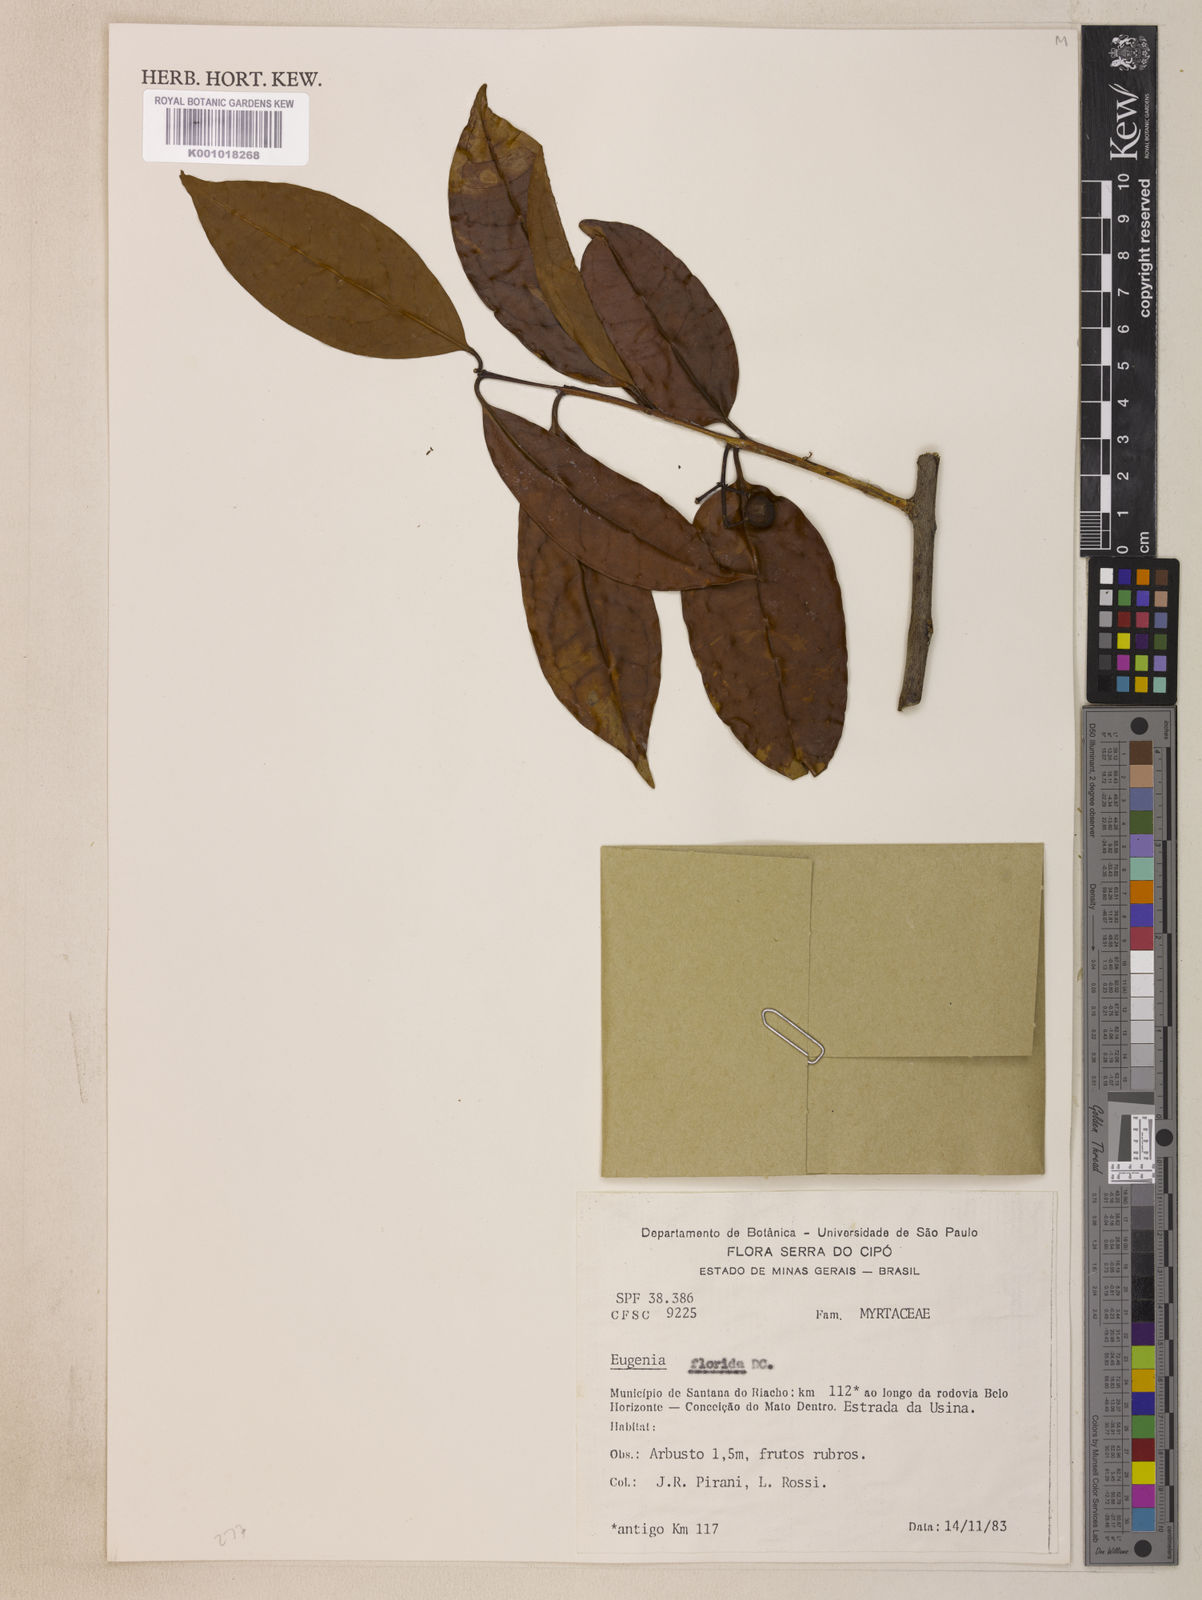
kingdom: Plantae
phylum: Tracheophyta
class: Magnoliopsida
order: Myrtales
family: Myrtaceae
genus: Eugenia
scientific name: Eugenia florida
